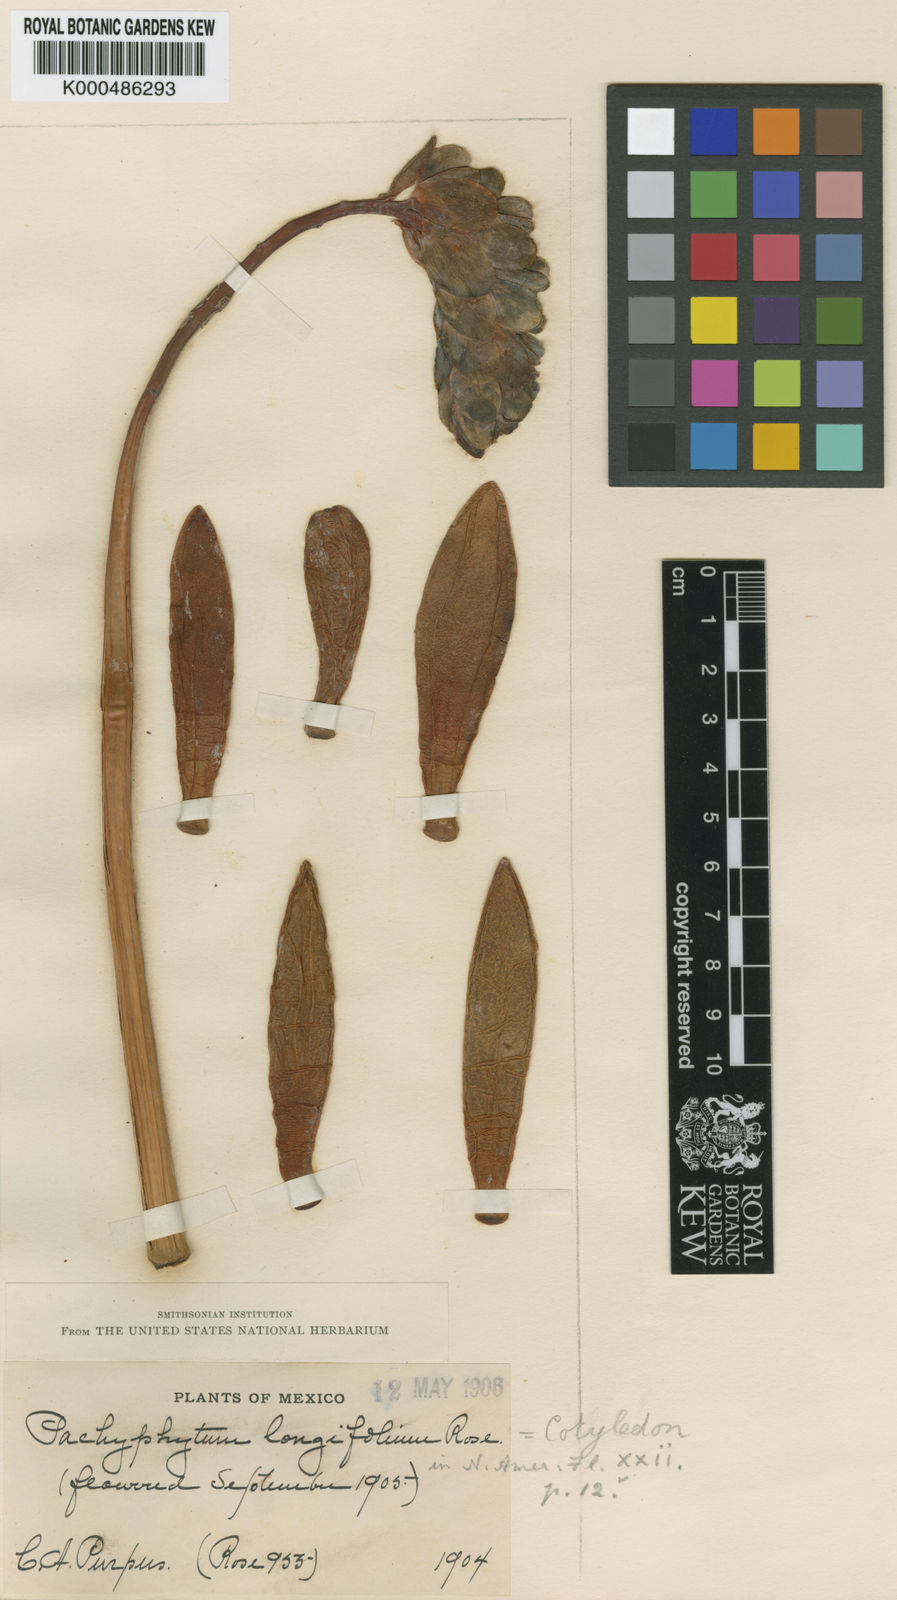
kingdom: Plantae
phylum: Tracheophyta
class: Magnoliopsida
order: Saxifragales
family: Crassulaceae
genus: Pachyphytum
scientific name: Pachyphytum longifolium
